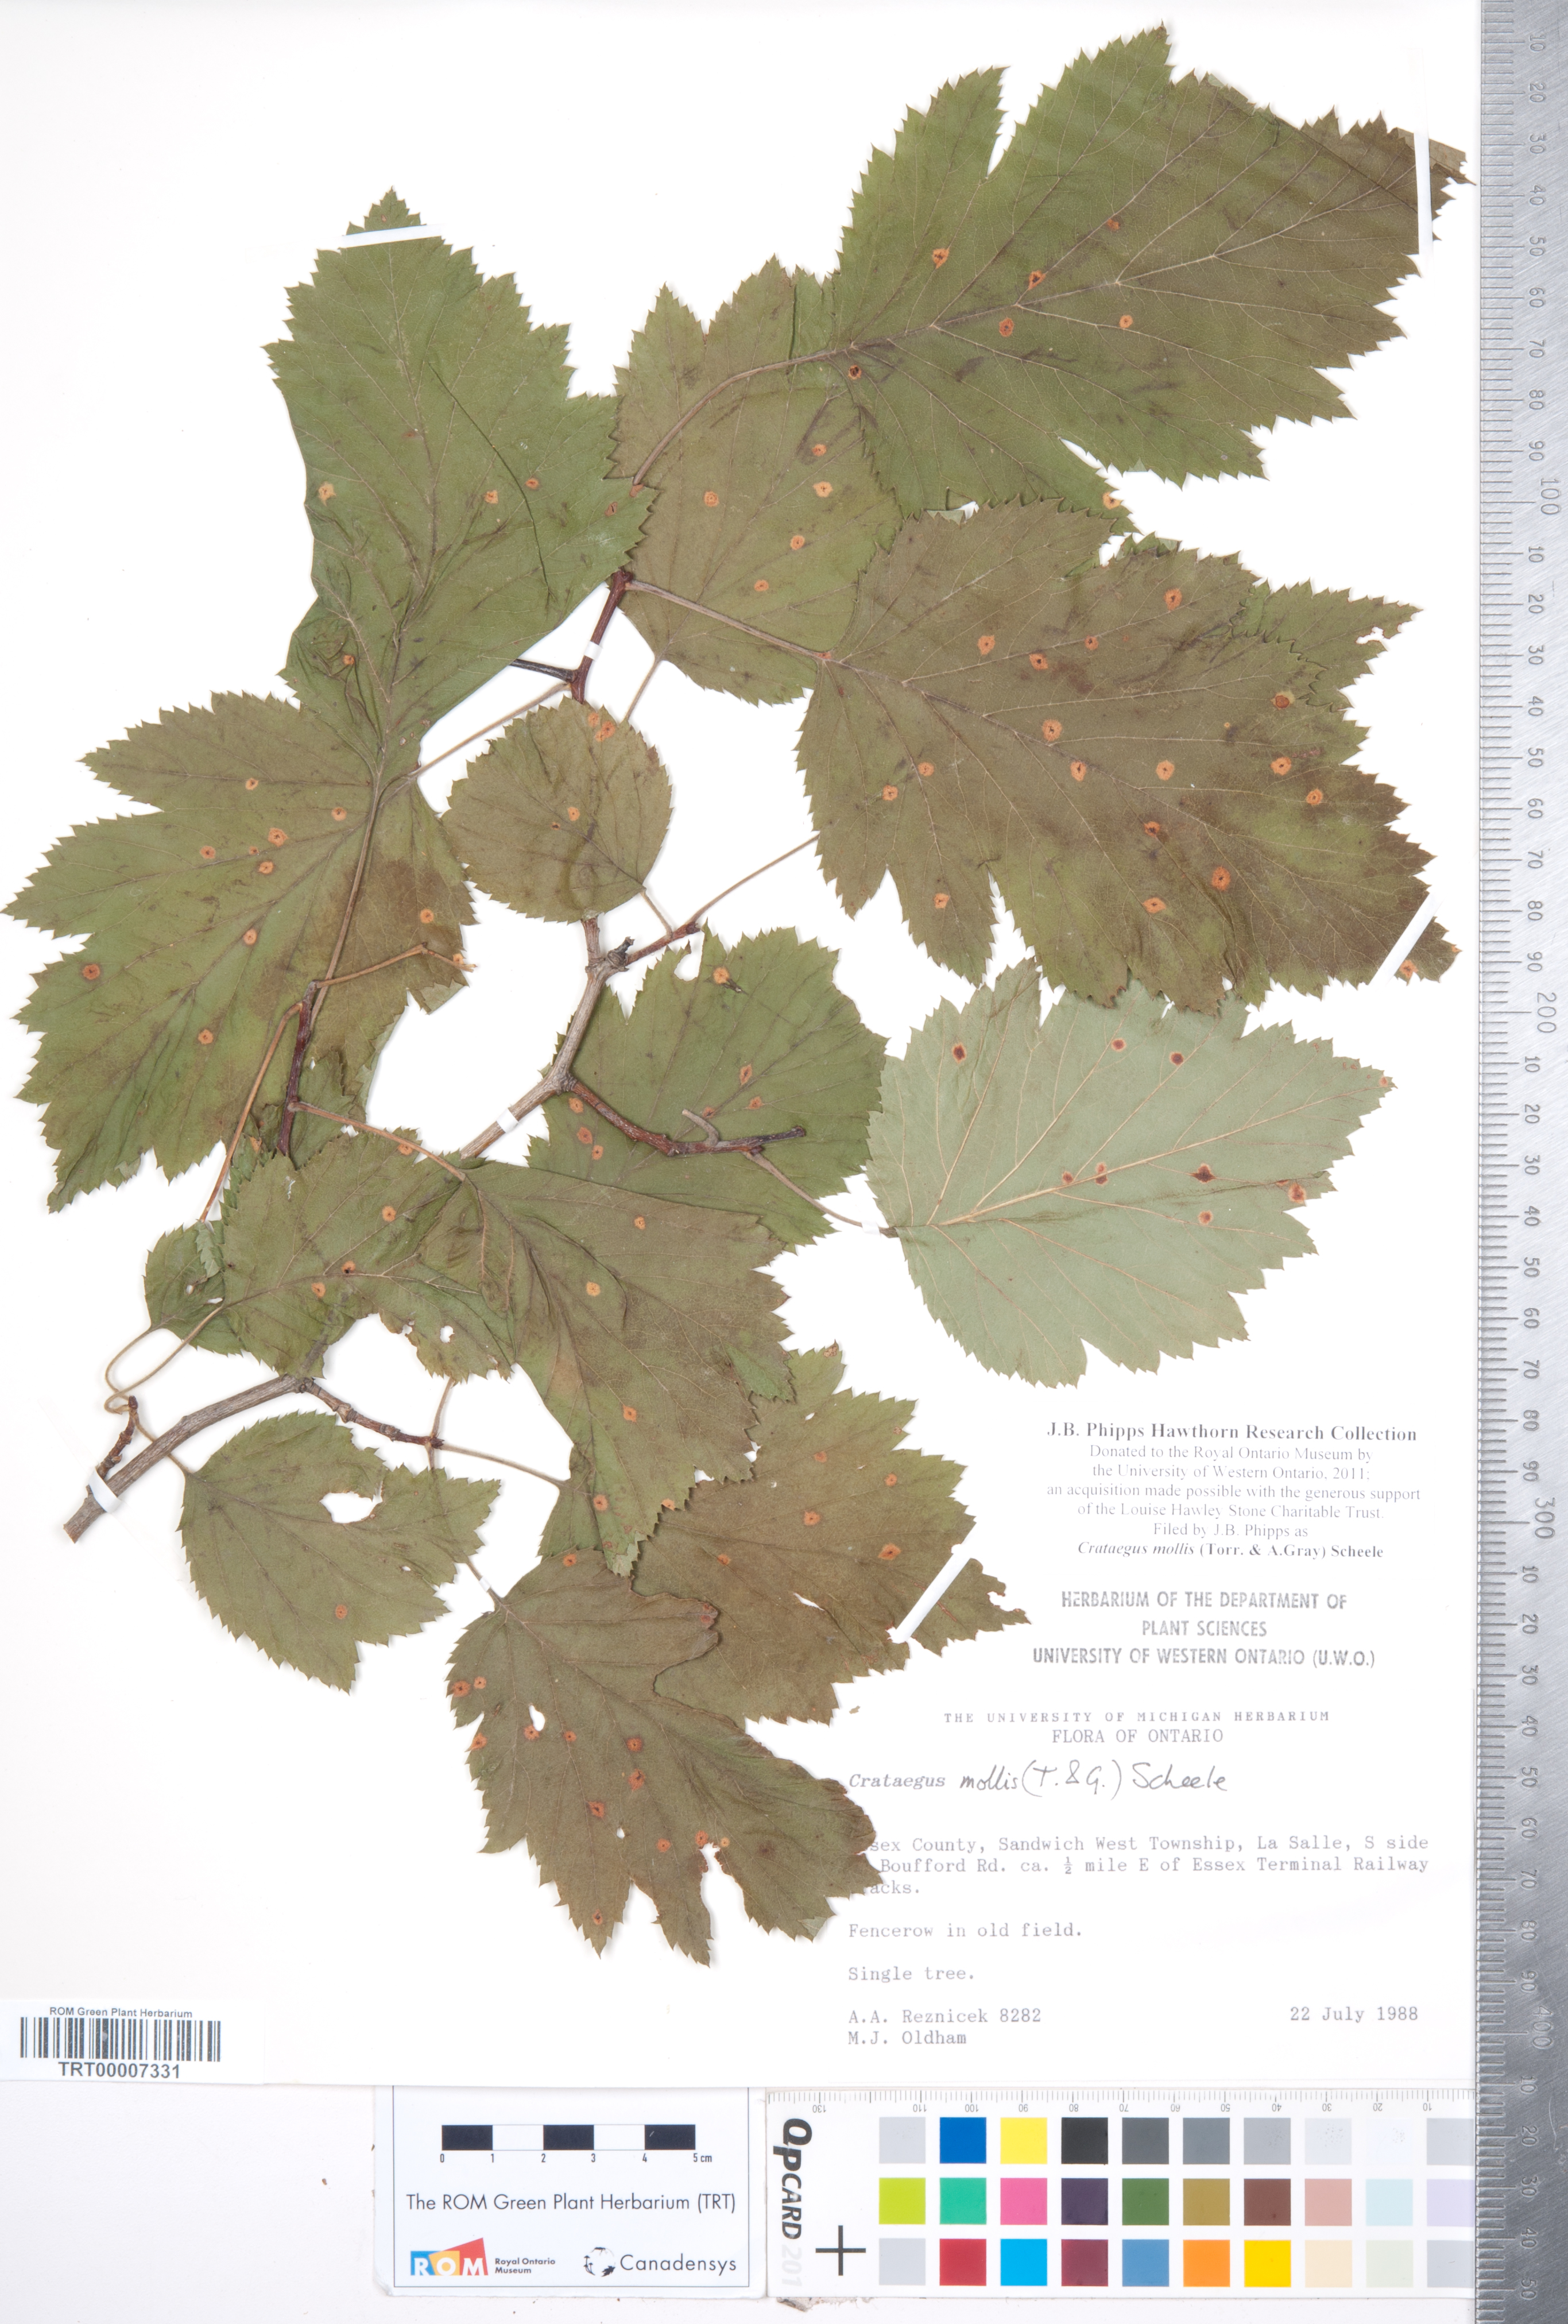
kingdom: Plantae
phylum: Tracheophyta
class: Magnoliopsida
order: Rosales
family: Rosaceae
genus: Crataegus
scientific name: Crataegus mollis
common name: Downy hawthorn
